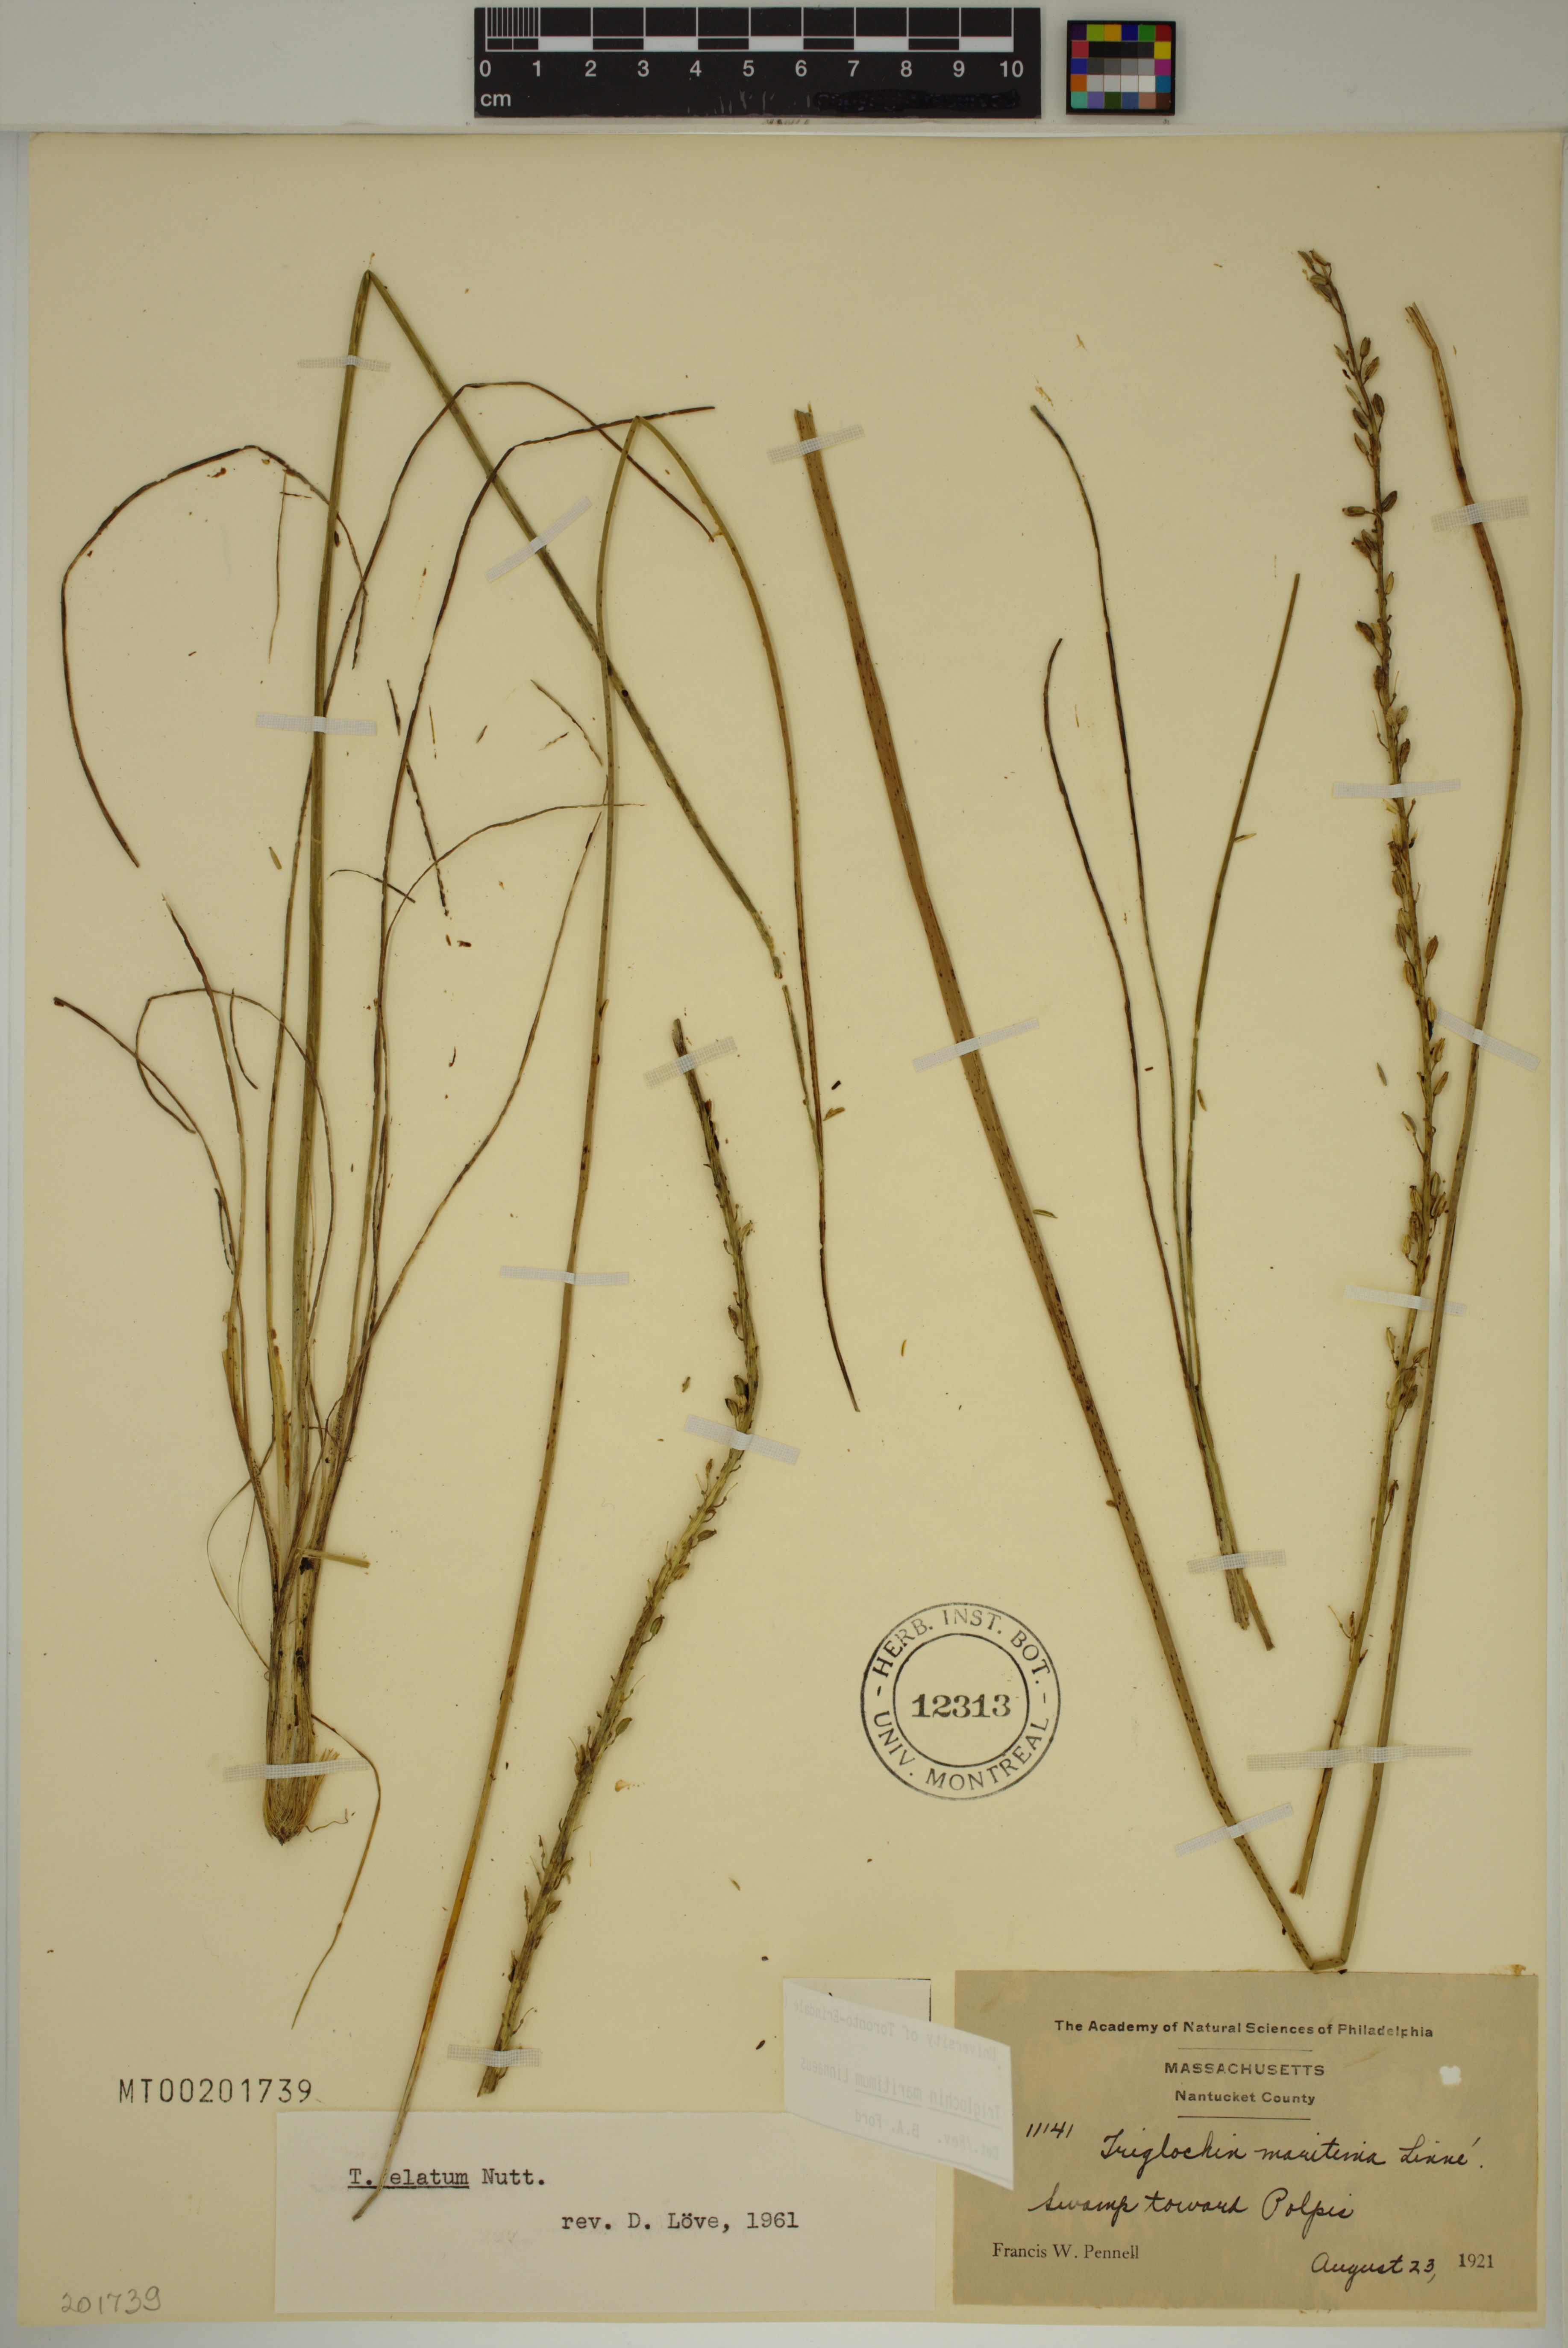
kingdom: Plantae
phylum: Tracheophyta
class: Liliopsida
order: Alismatales
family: Juncaginaceae
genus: Triglochin
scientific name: Triglochin maritima
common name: Sea arrowgrass
